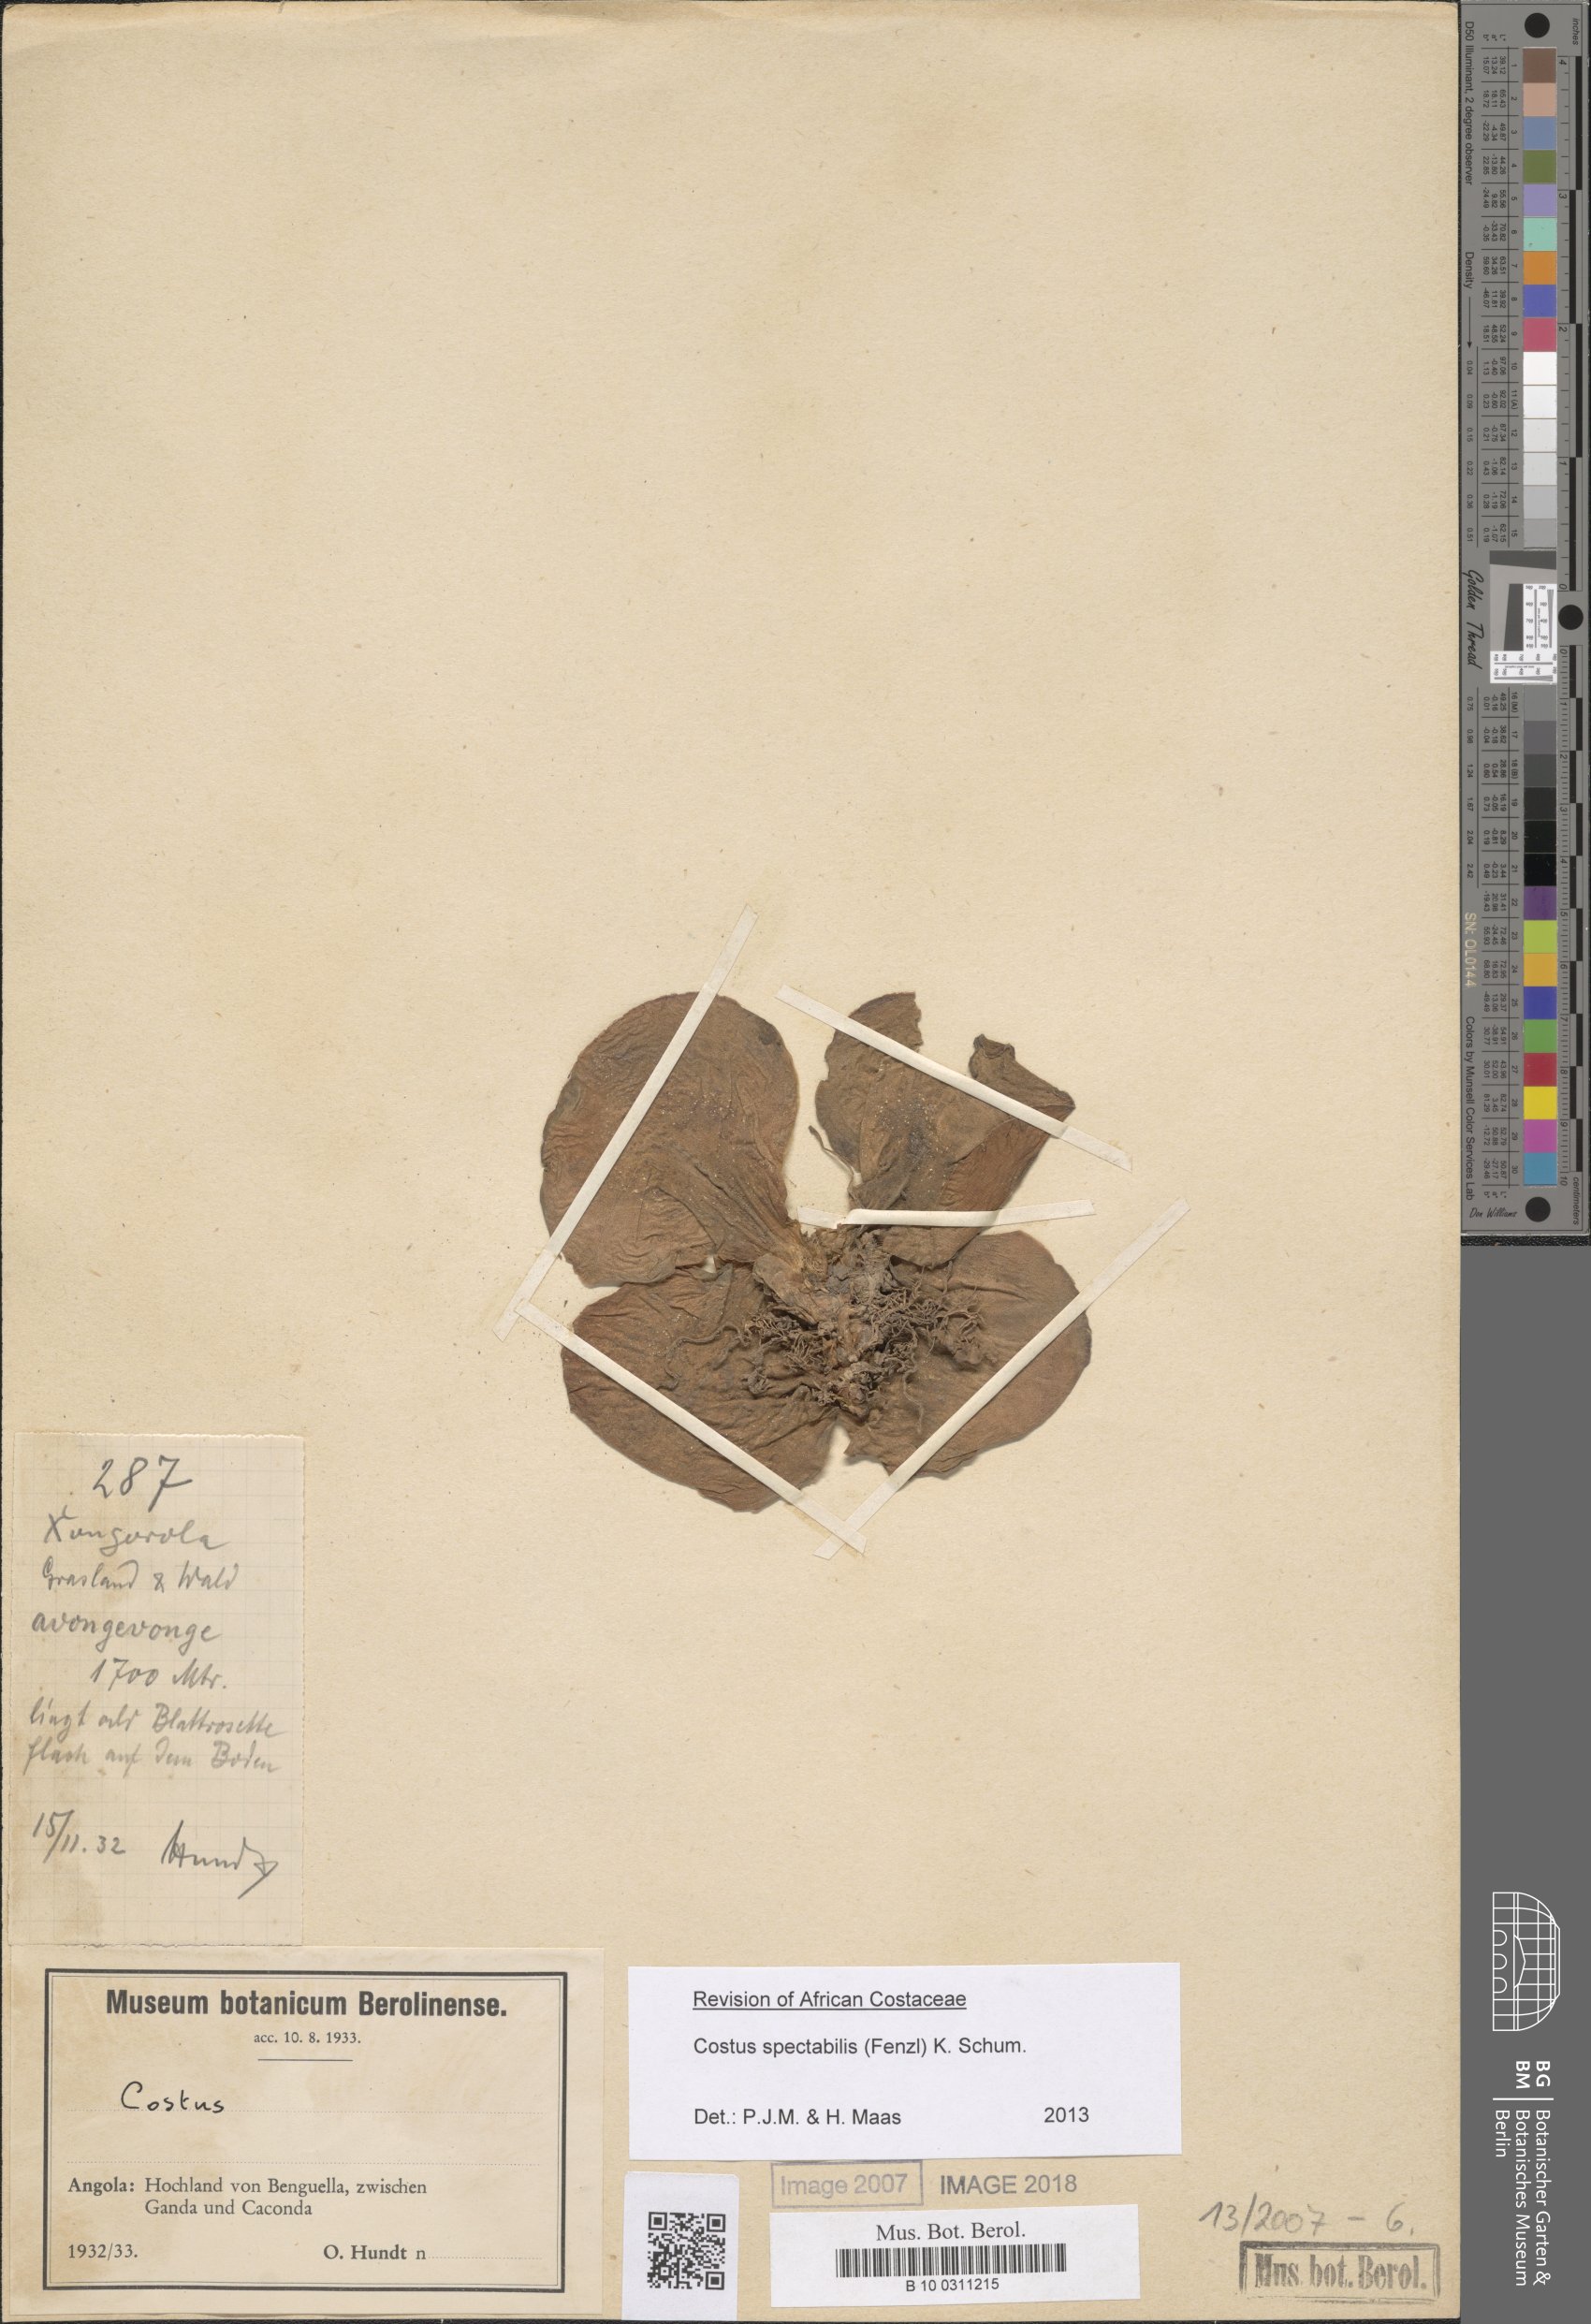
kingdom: Plantae
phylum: Tracheophyta
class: Liliopsida
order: Zingiberales
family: Costaceae
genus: Costus
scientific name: Costus spectabilis
